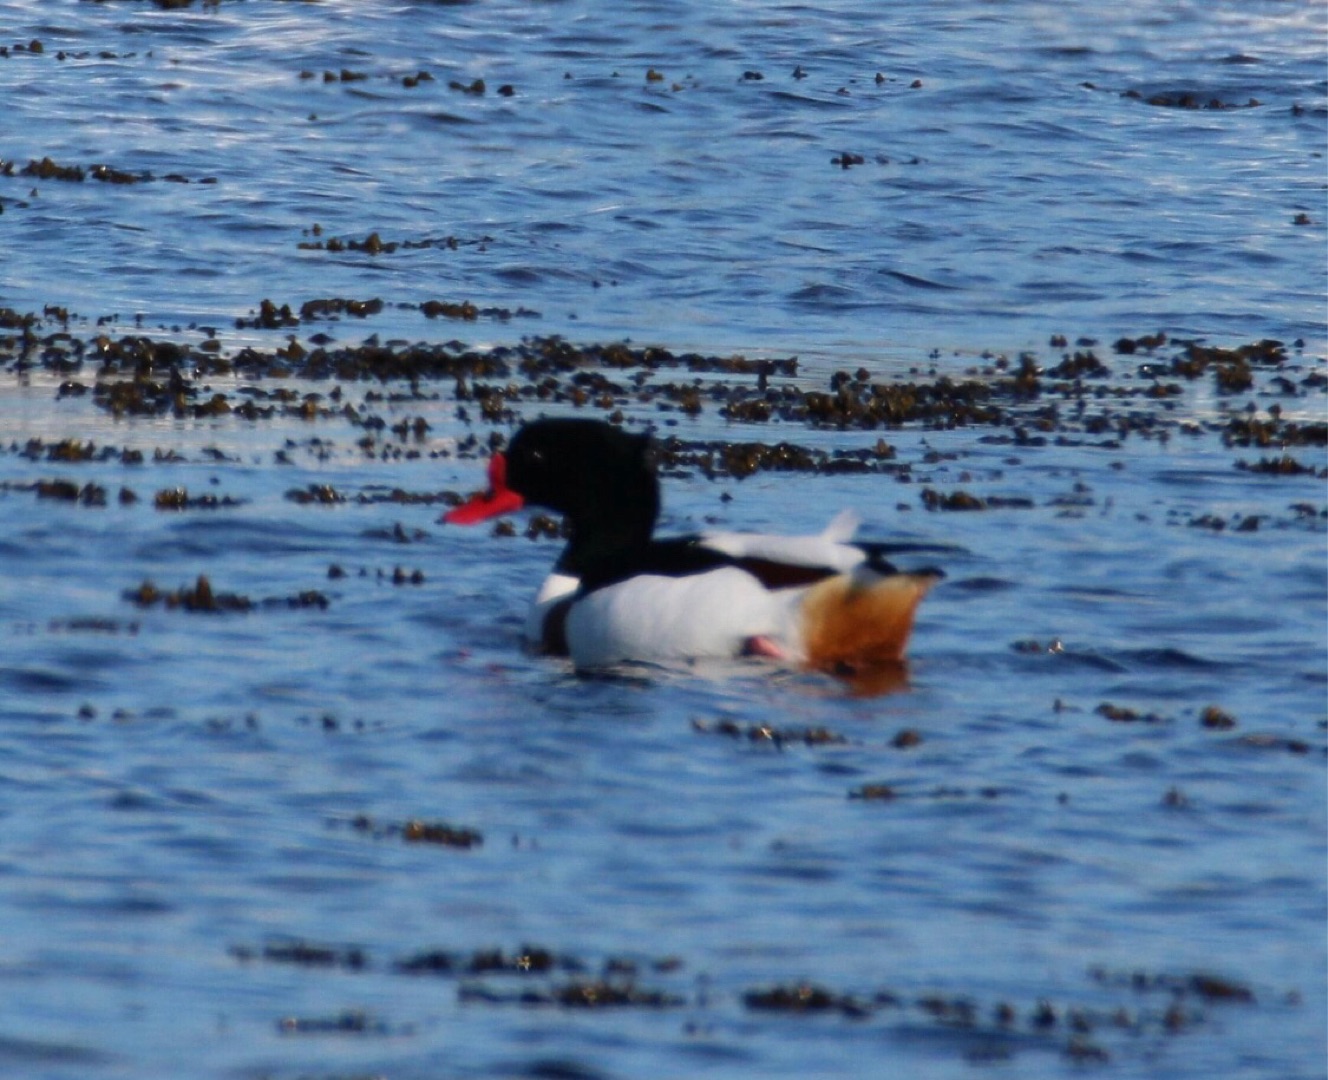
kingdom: Animalia
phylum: Chordata
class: Aves
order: Anseriformes
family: Anatidae
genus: Tadorna
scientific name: Tadorna tadorna
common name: Gravand
